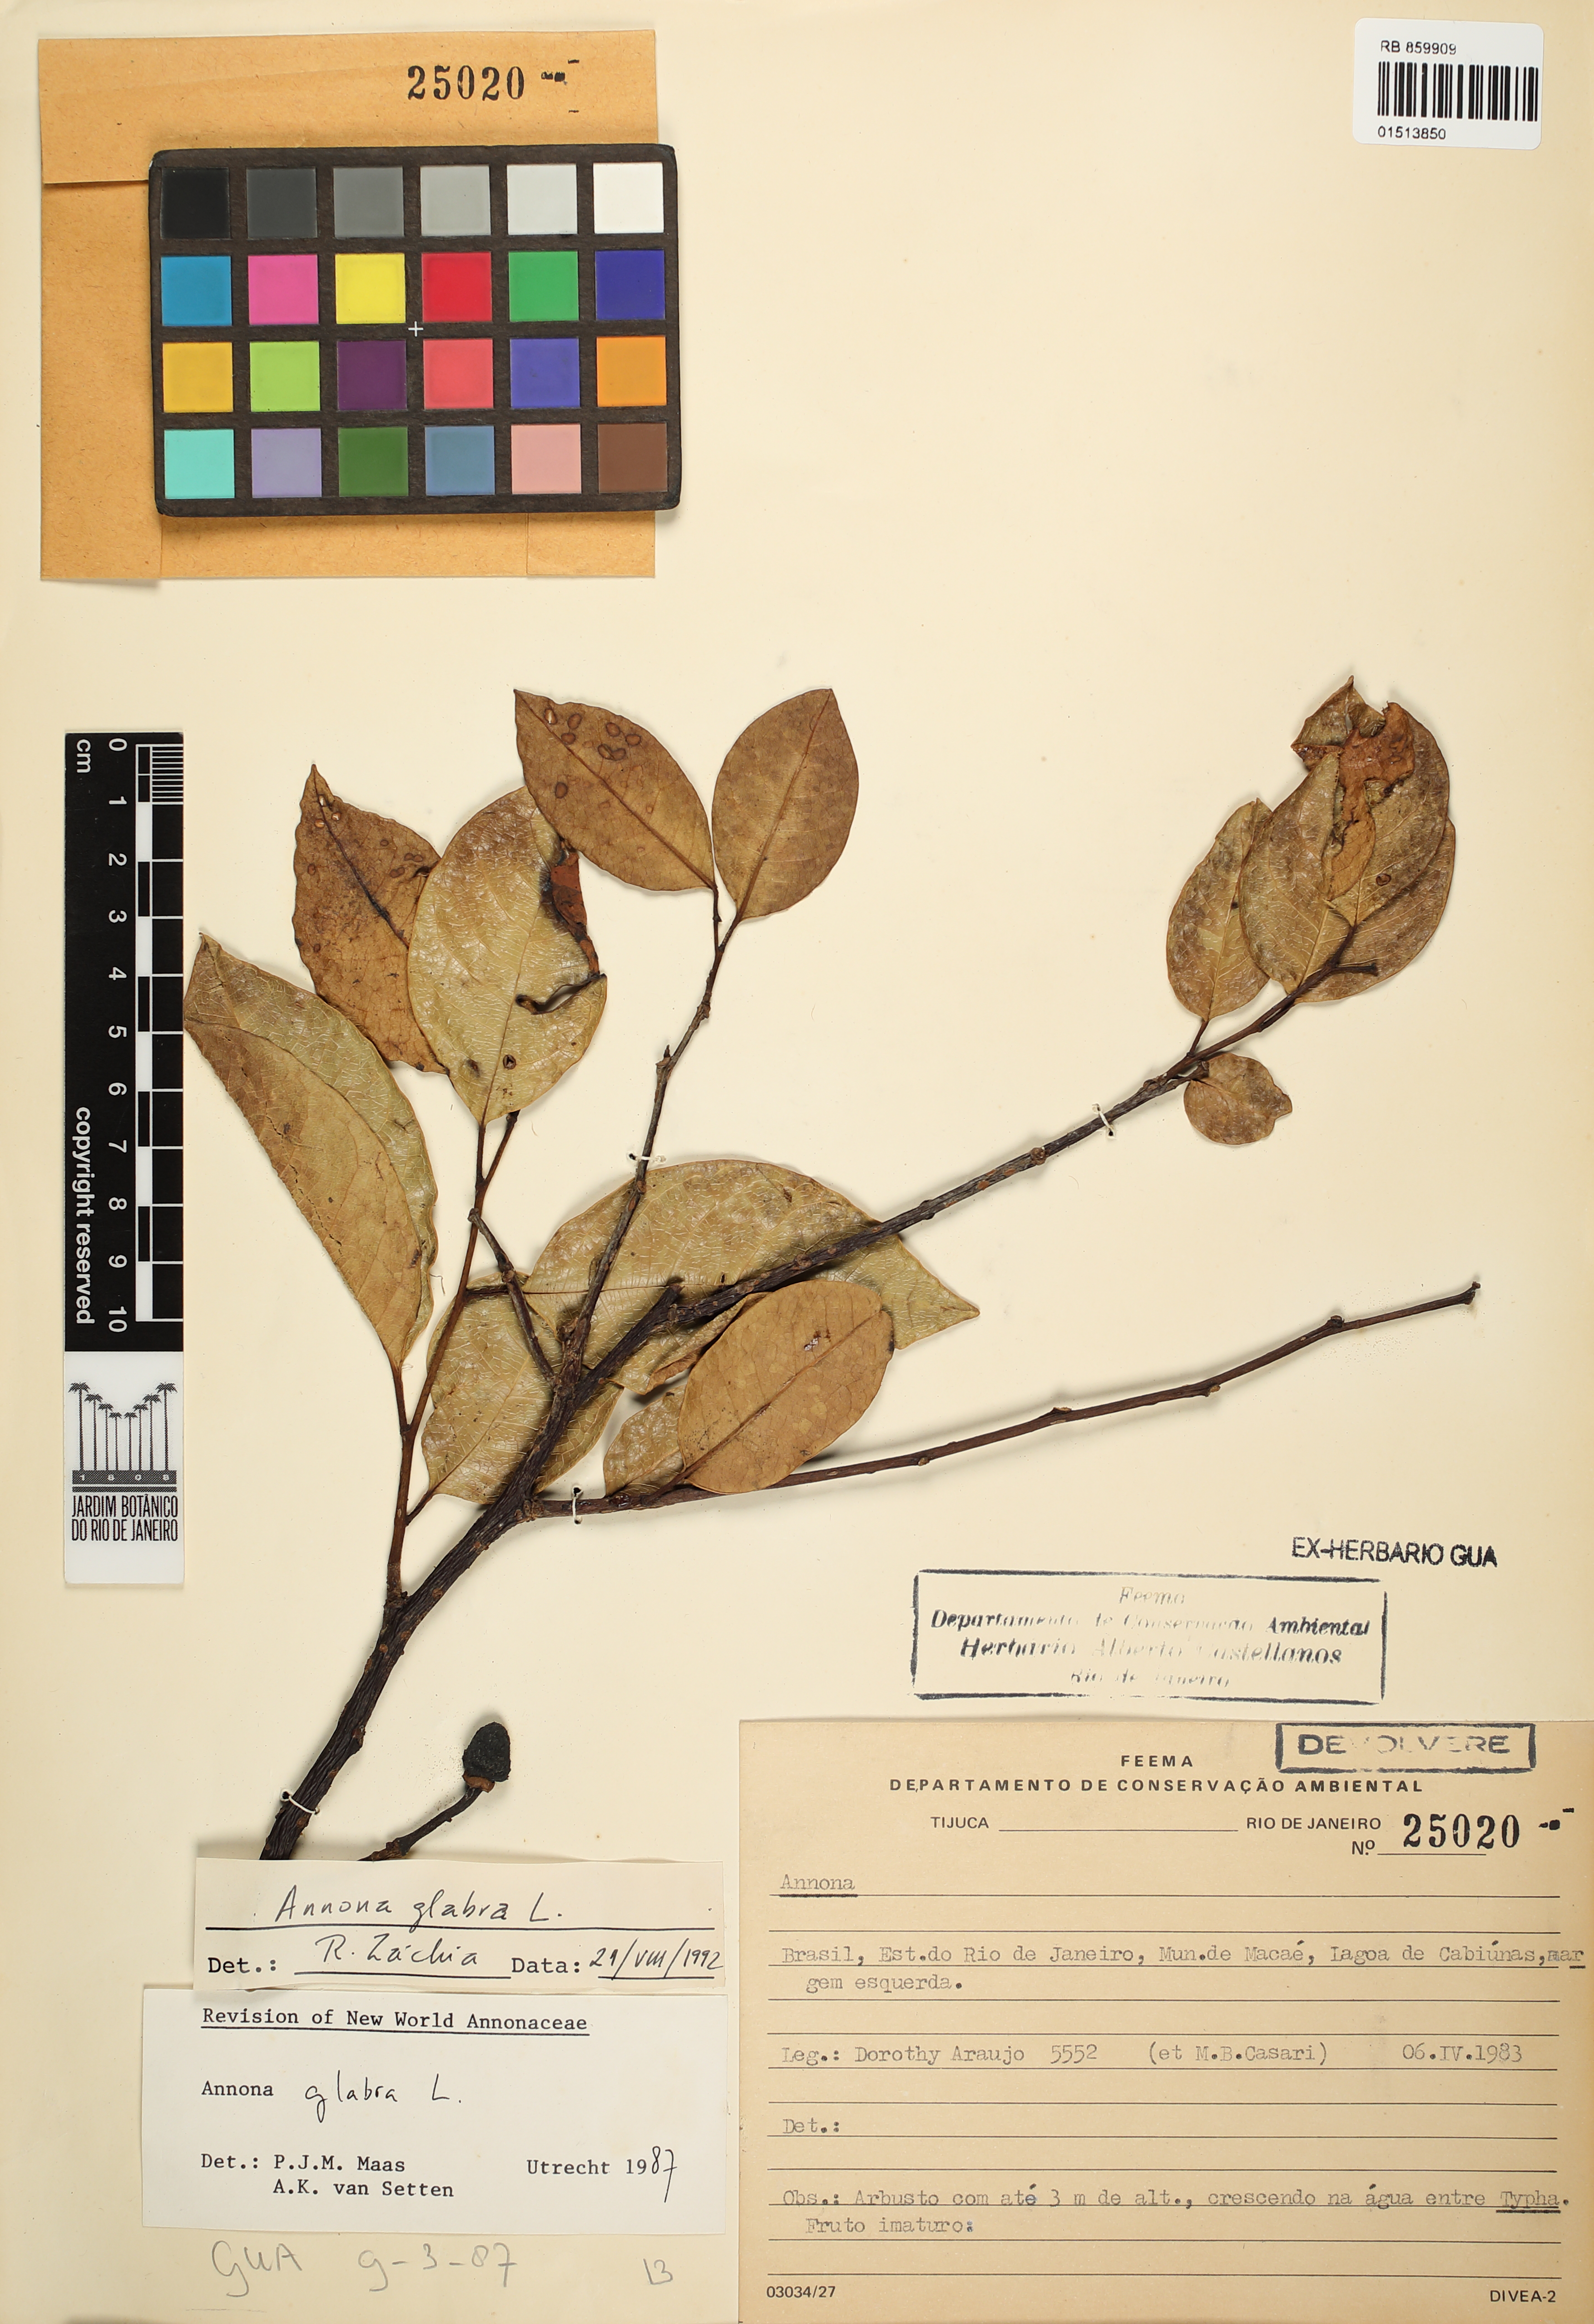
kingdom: Plantae
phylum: Tracheophyta
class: Magnoliopsida
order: Magnoliales
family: Annonaceae
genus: Annona
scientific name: Annona glabra
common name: Monkey apple
